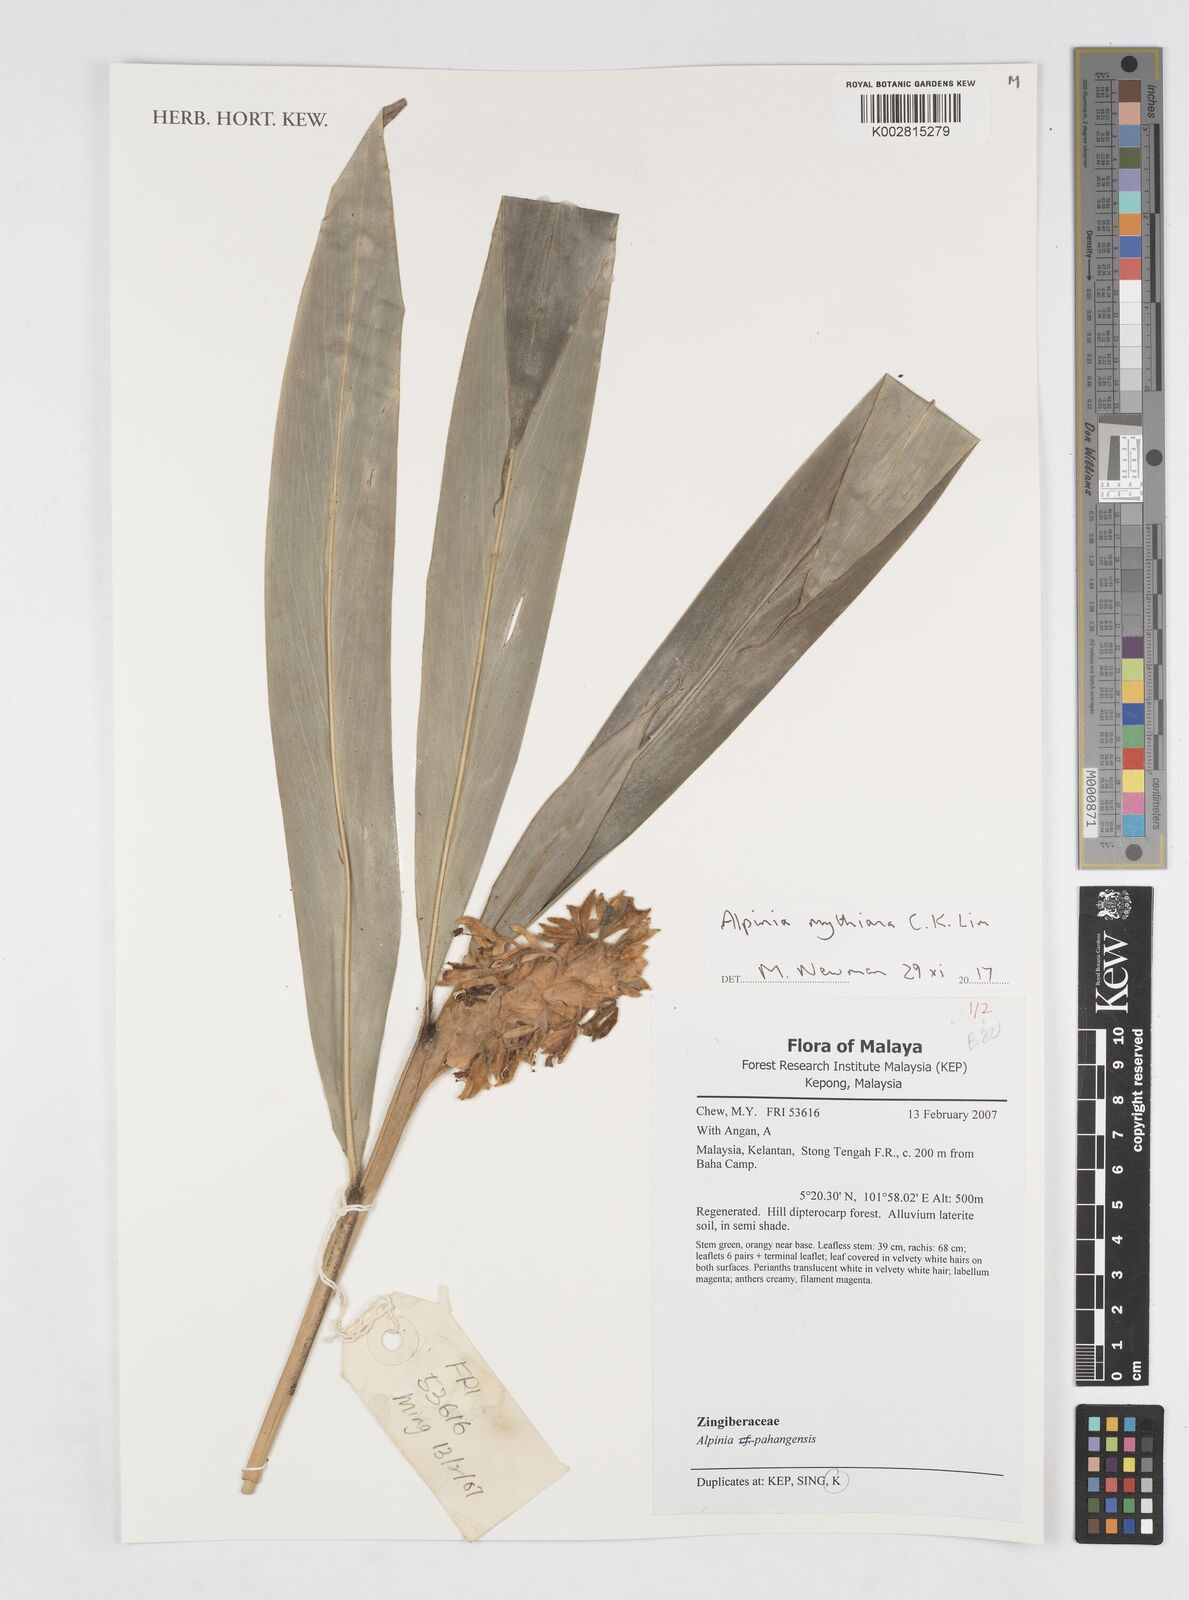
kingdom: Plantae
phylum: Tracheophyta
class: Liliopsida
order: Zingiberales
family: Zingiberaceae
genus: Alpinia
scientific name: Alpinia rafflesiana
